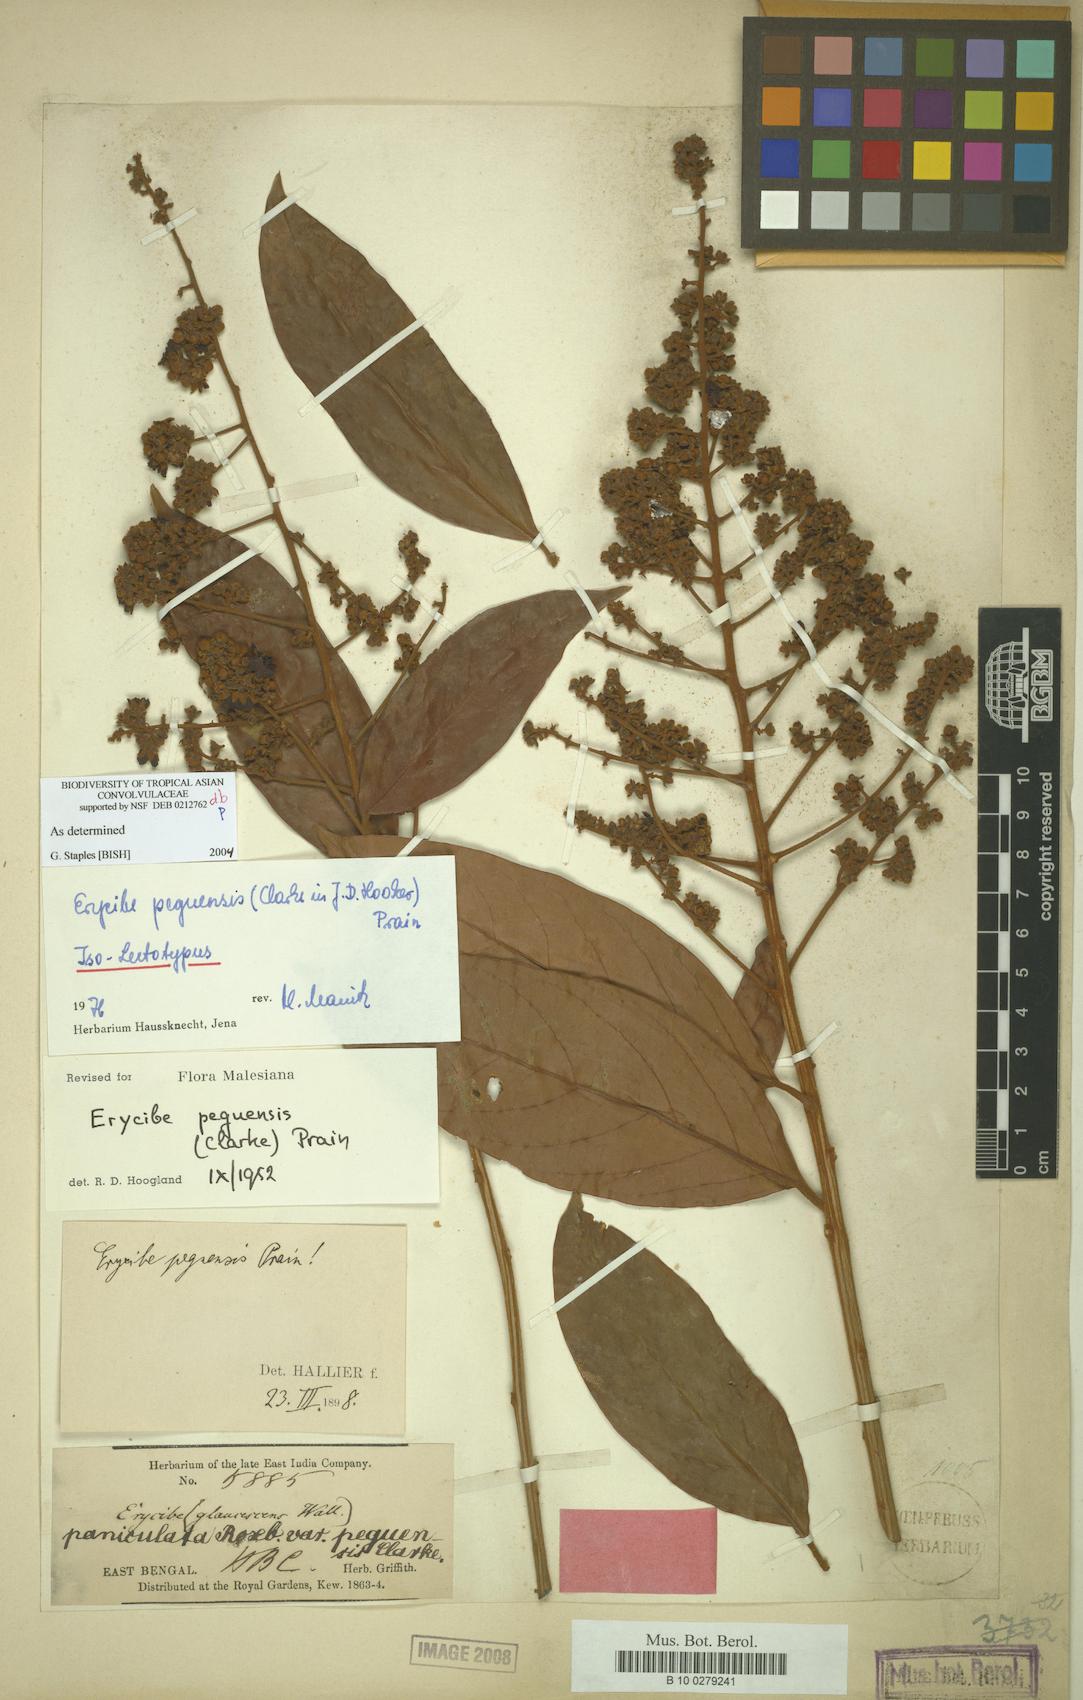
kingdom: Plantae
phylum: Tracheophyta
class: Magnoliopsida
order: Solanales
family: Convolvulaceae
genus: Argyreia
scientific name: Argyreia capitiformis
